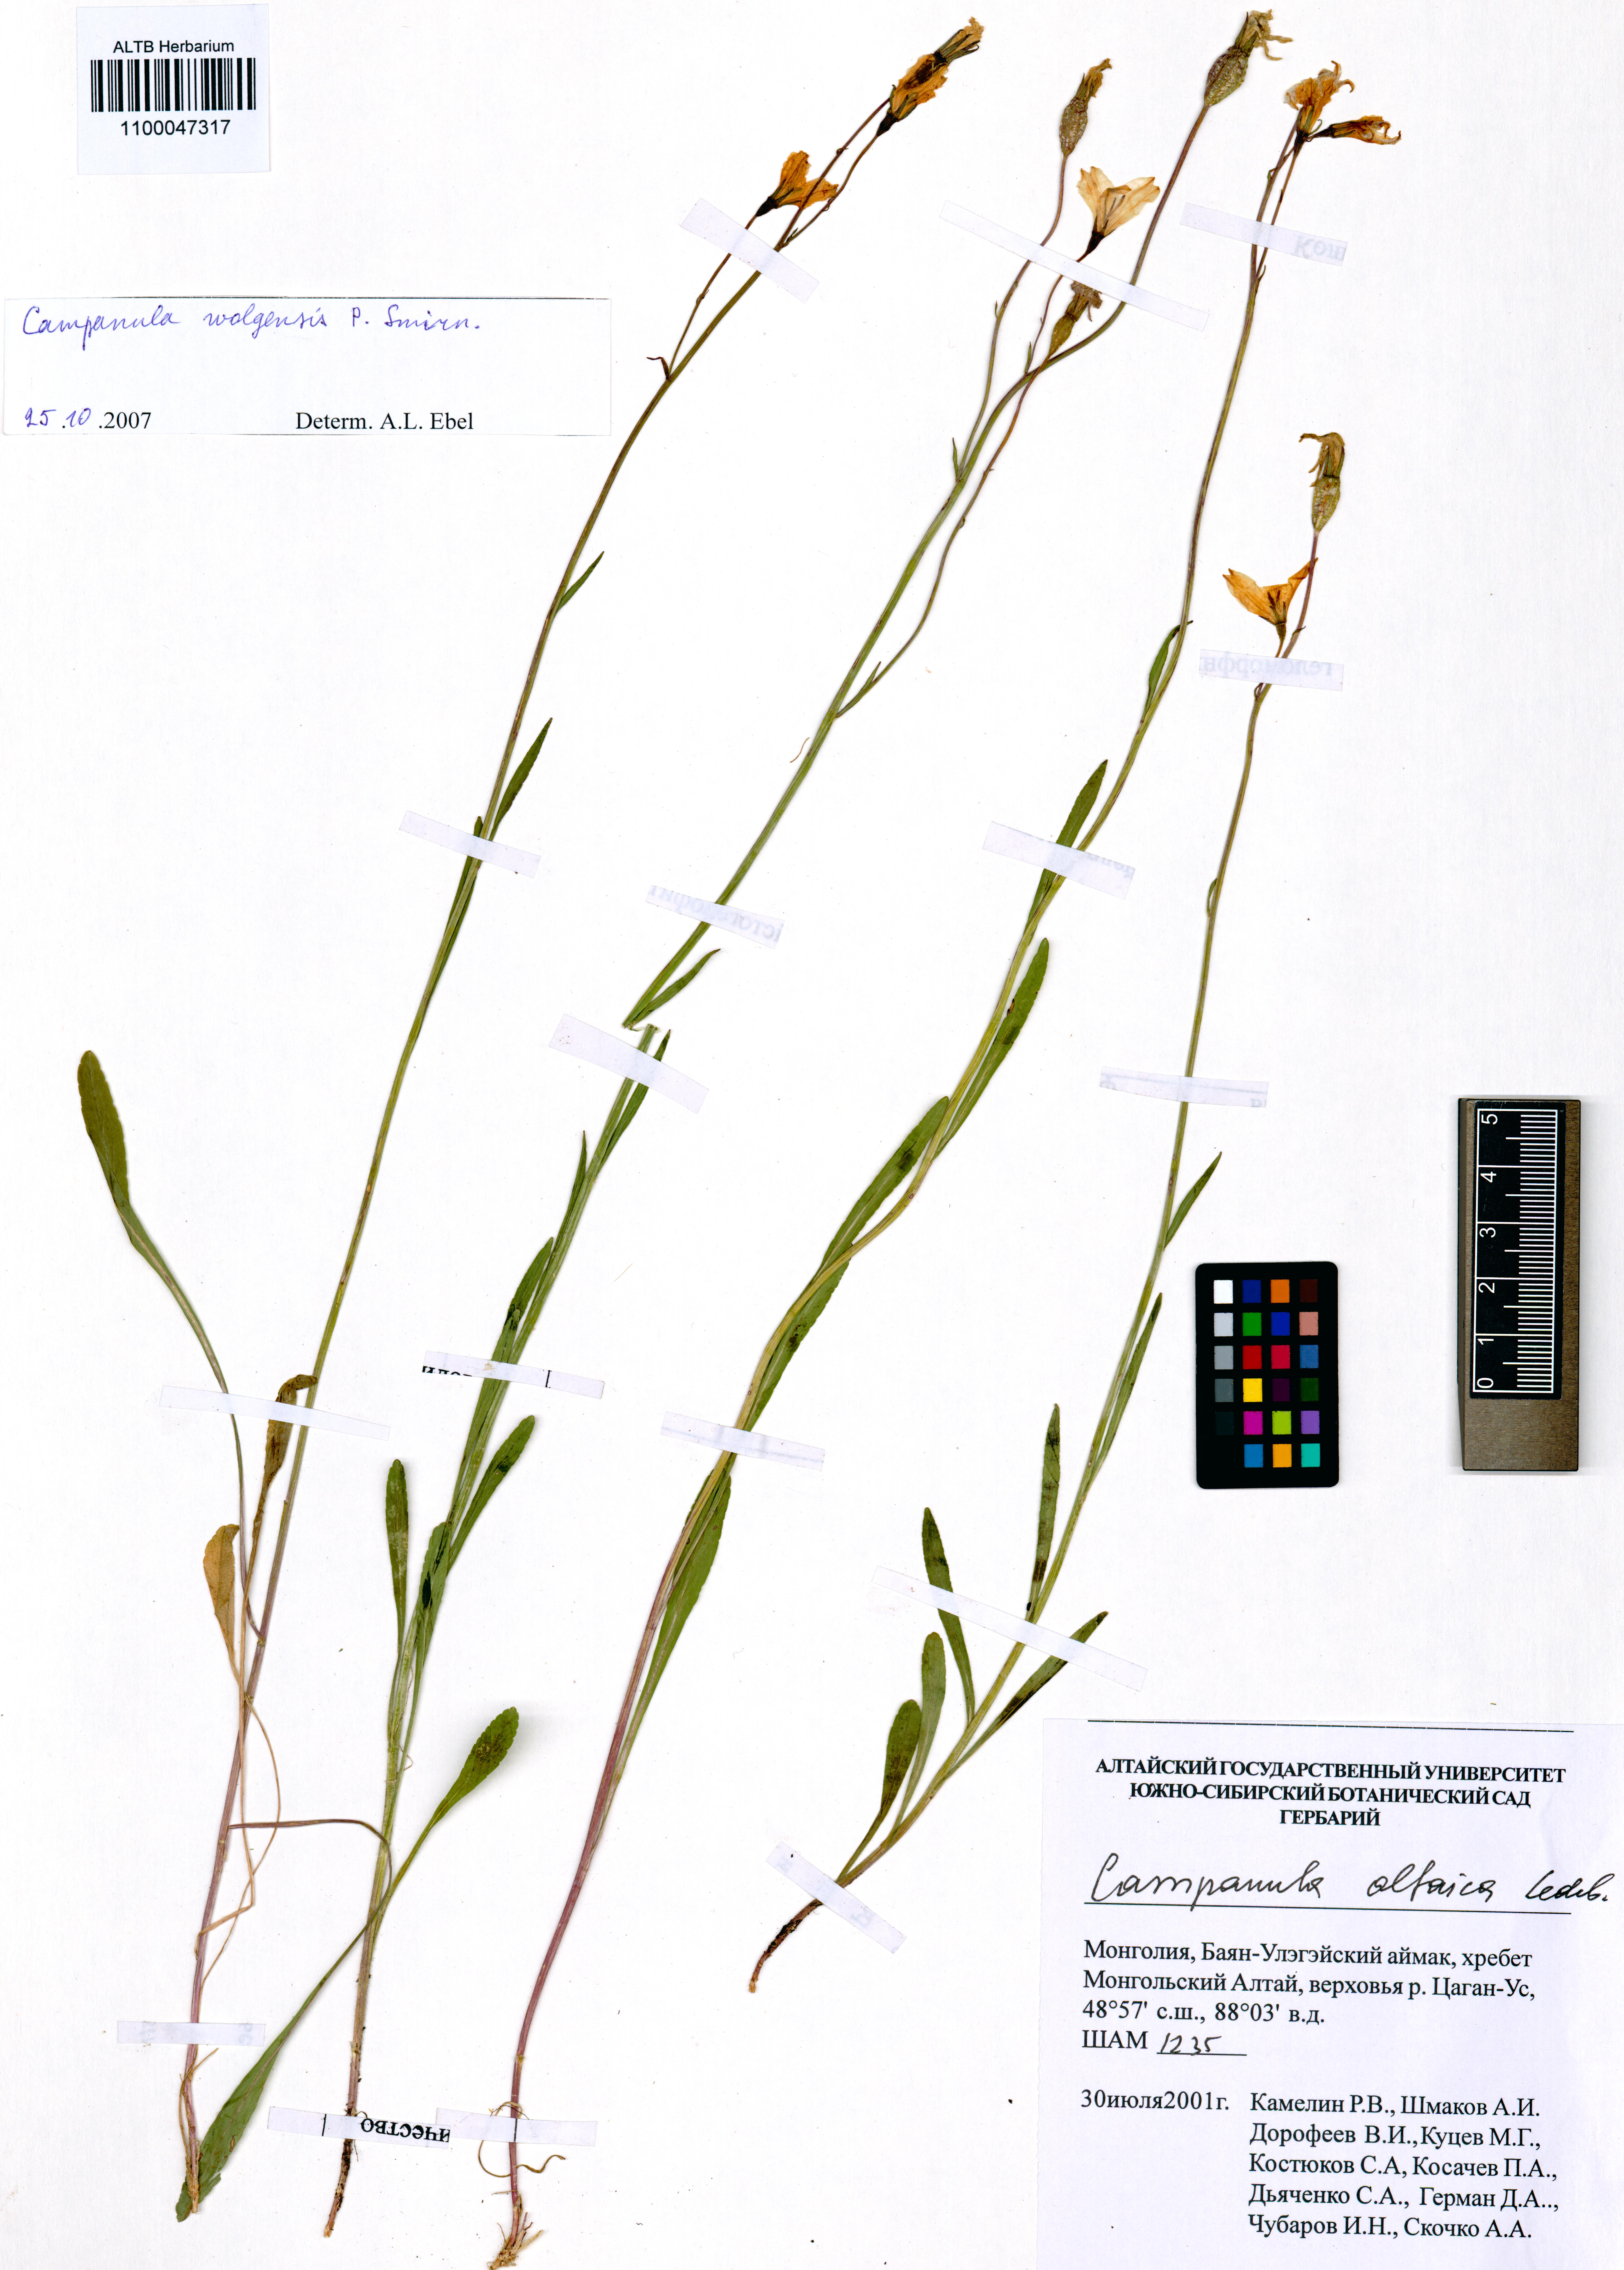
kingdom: Plantae
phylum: Tracheophyta
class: Magnoliopsida
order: Asterales
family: Campanulaceae
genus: Campanula
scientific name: Campanula stevenii
